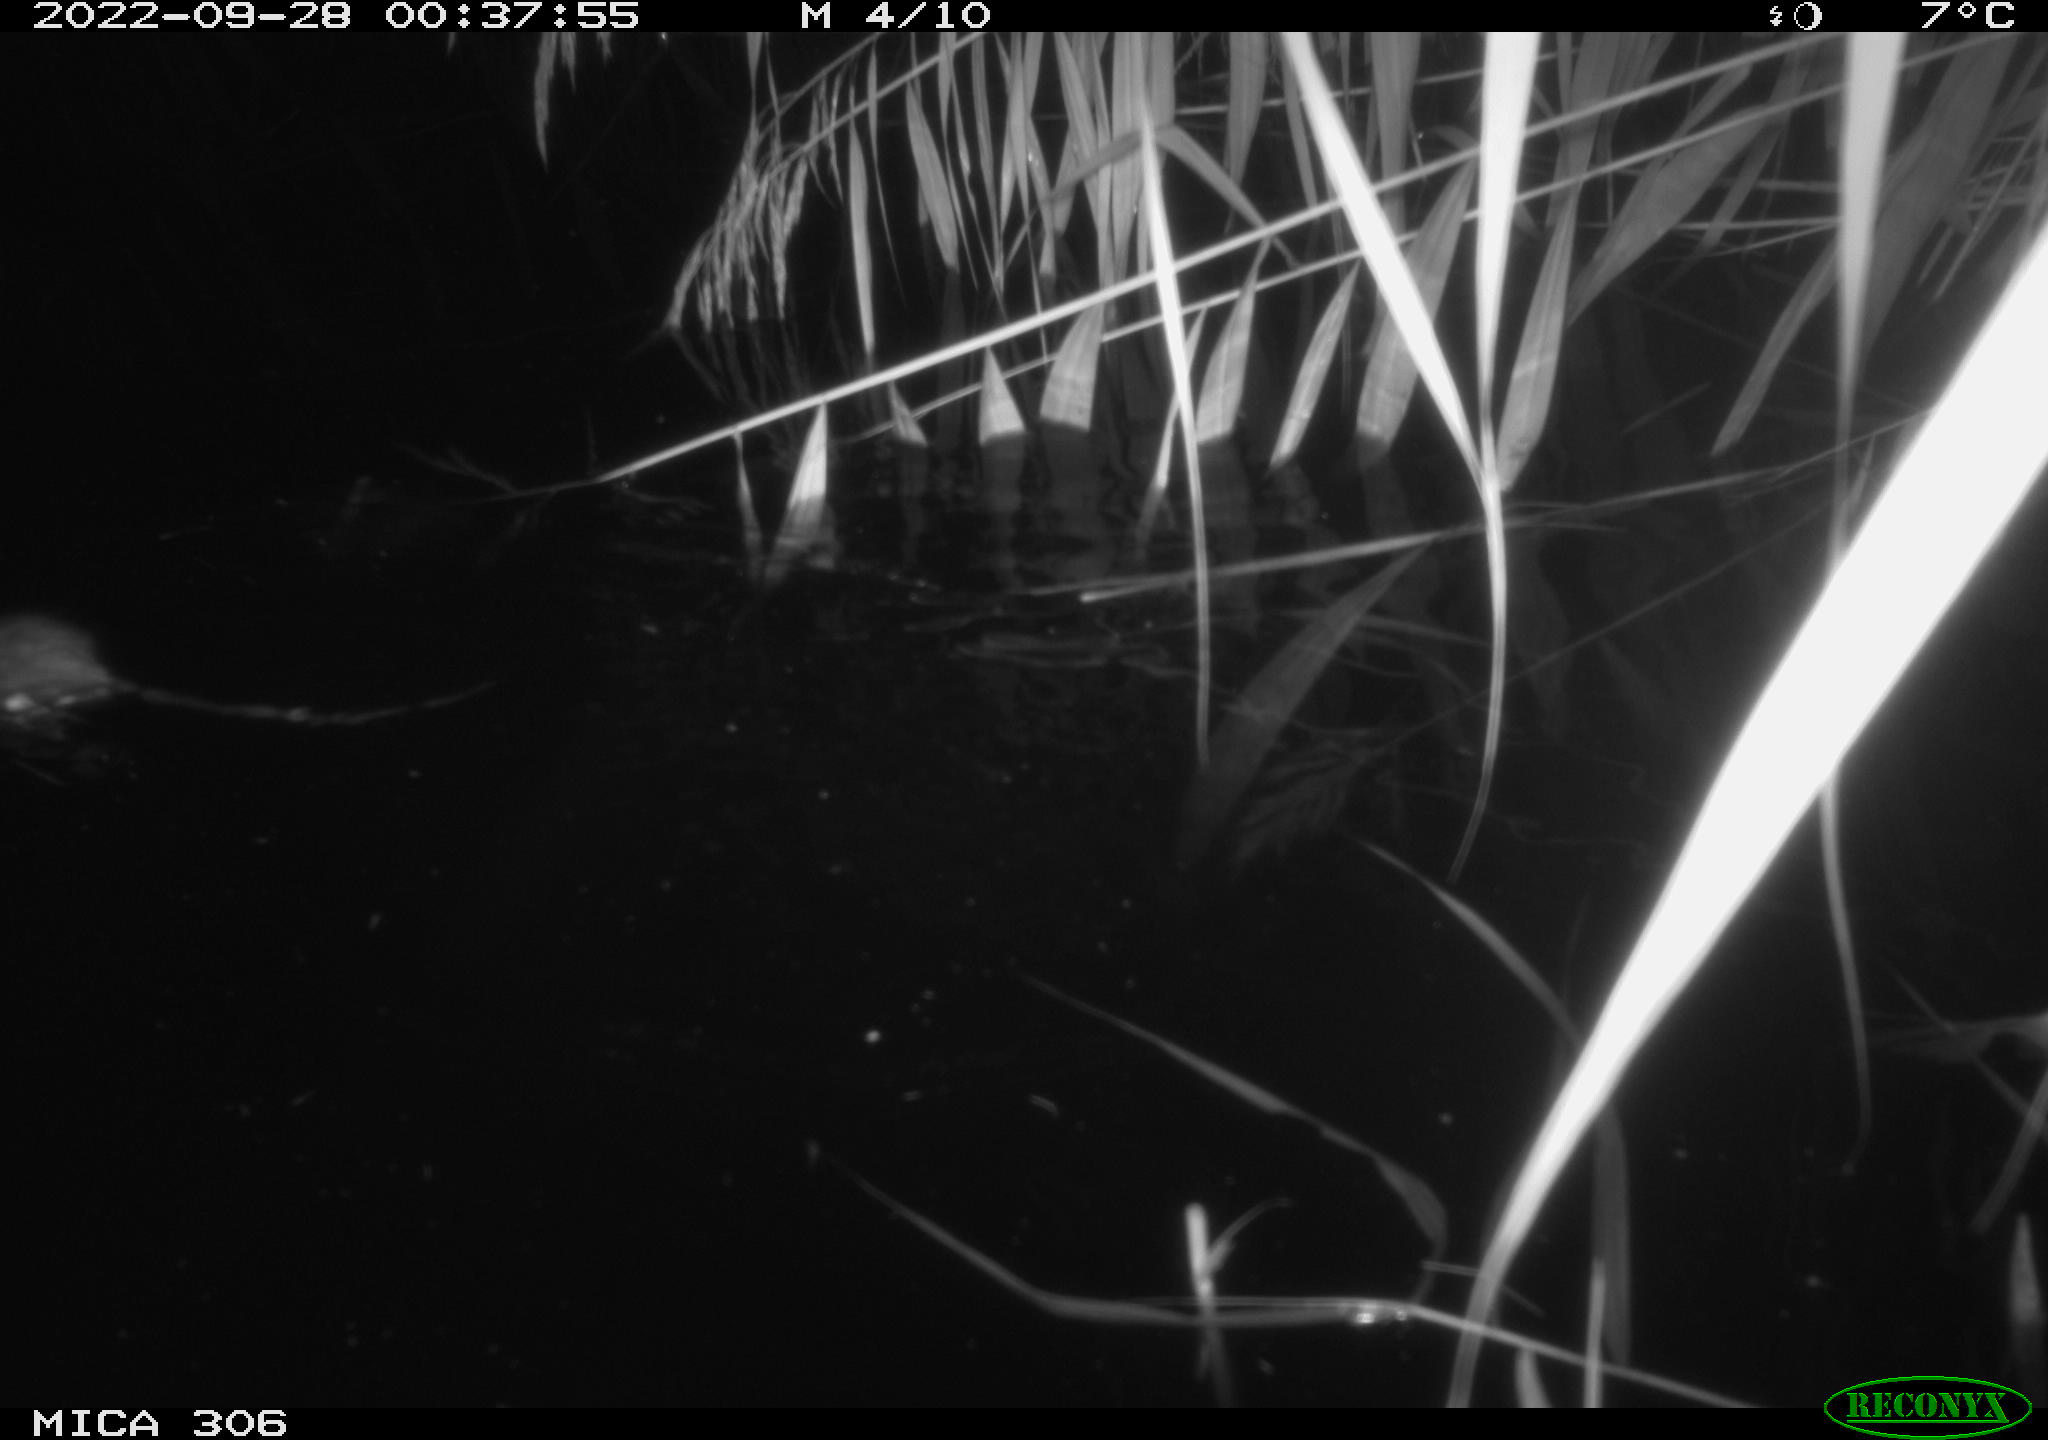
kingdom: Animalia
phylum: Chordata
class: Mammalia
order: Rodentia
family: Muridae
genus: Rattus
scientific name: Rattus norvegicus
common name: Brown rat
